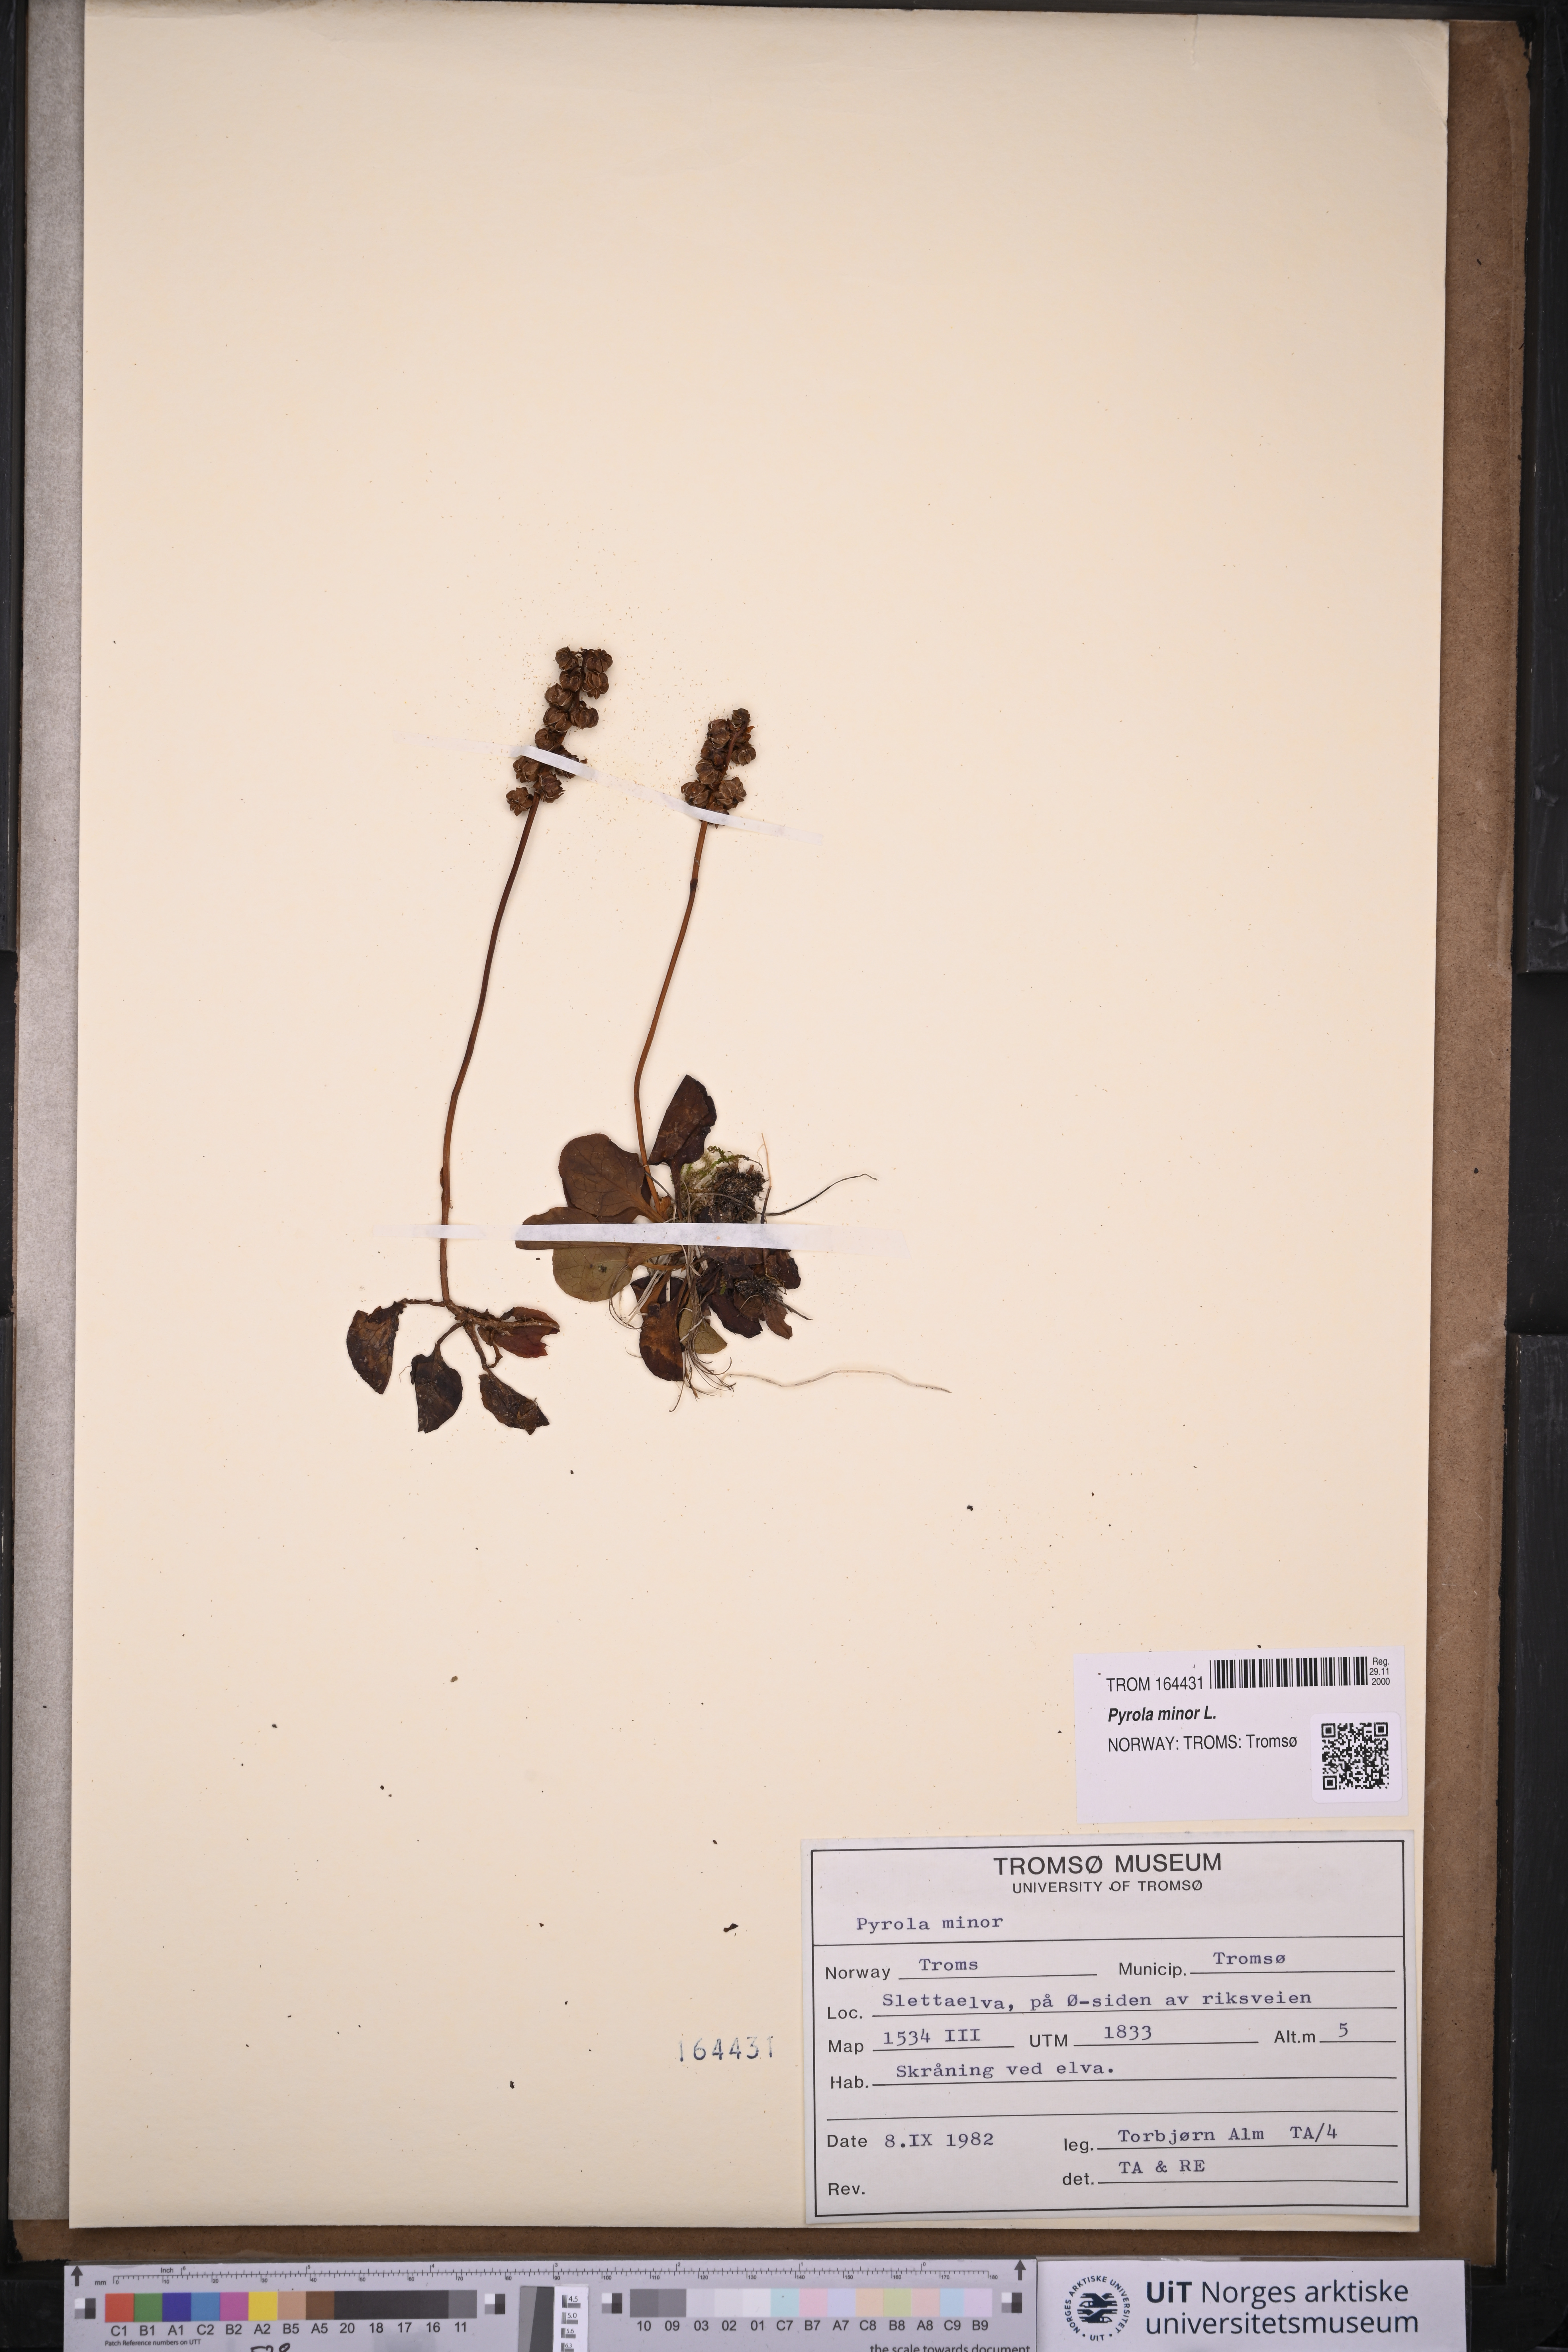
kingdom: Plantae
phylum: Tracheophyta
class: Magnoliopsida
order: Ericales
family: Ericaceae
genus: Pyrola
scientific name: Pyrola minor
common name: Common wintergreen
